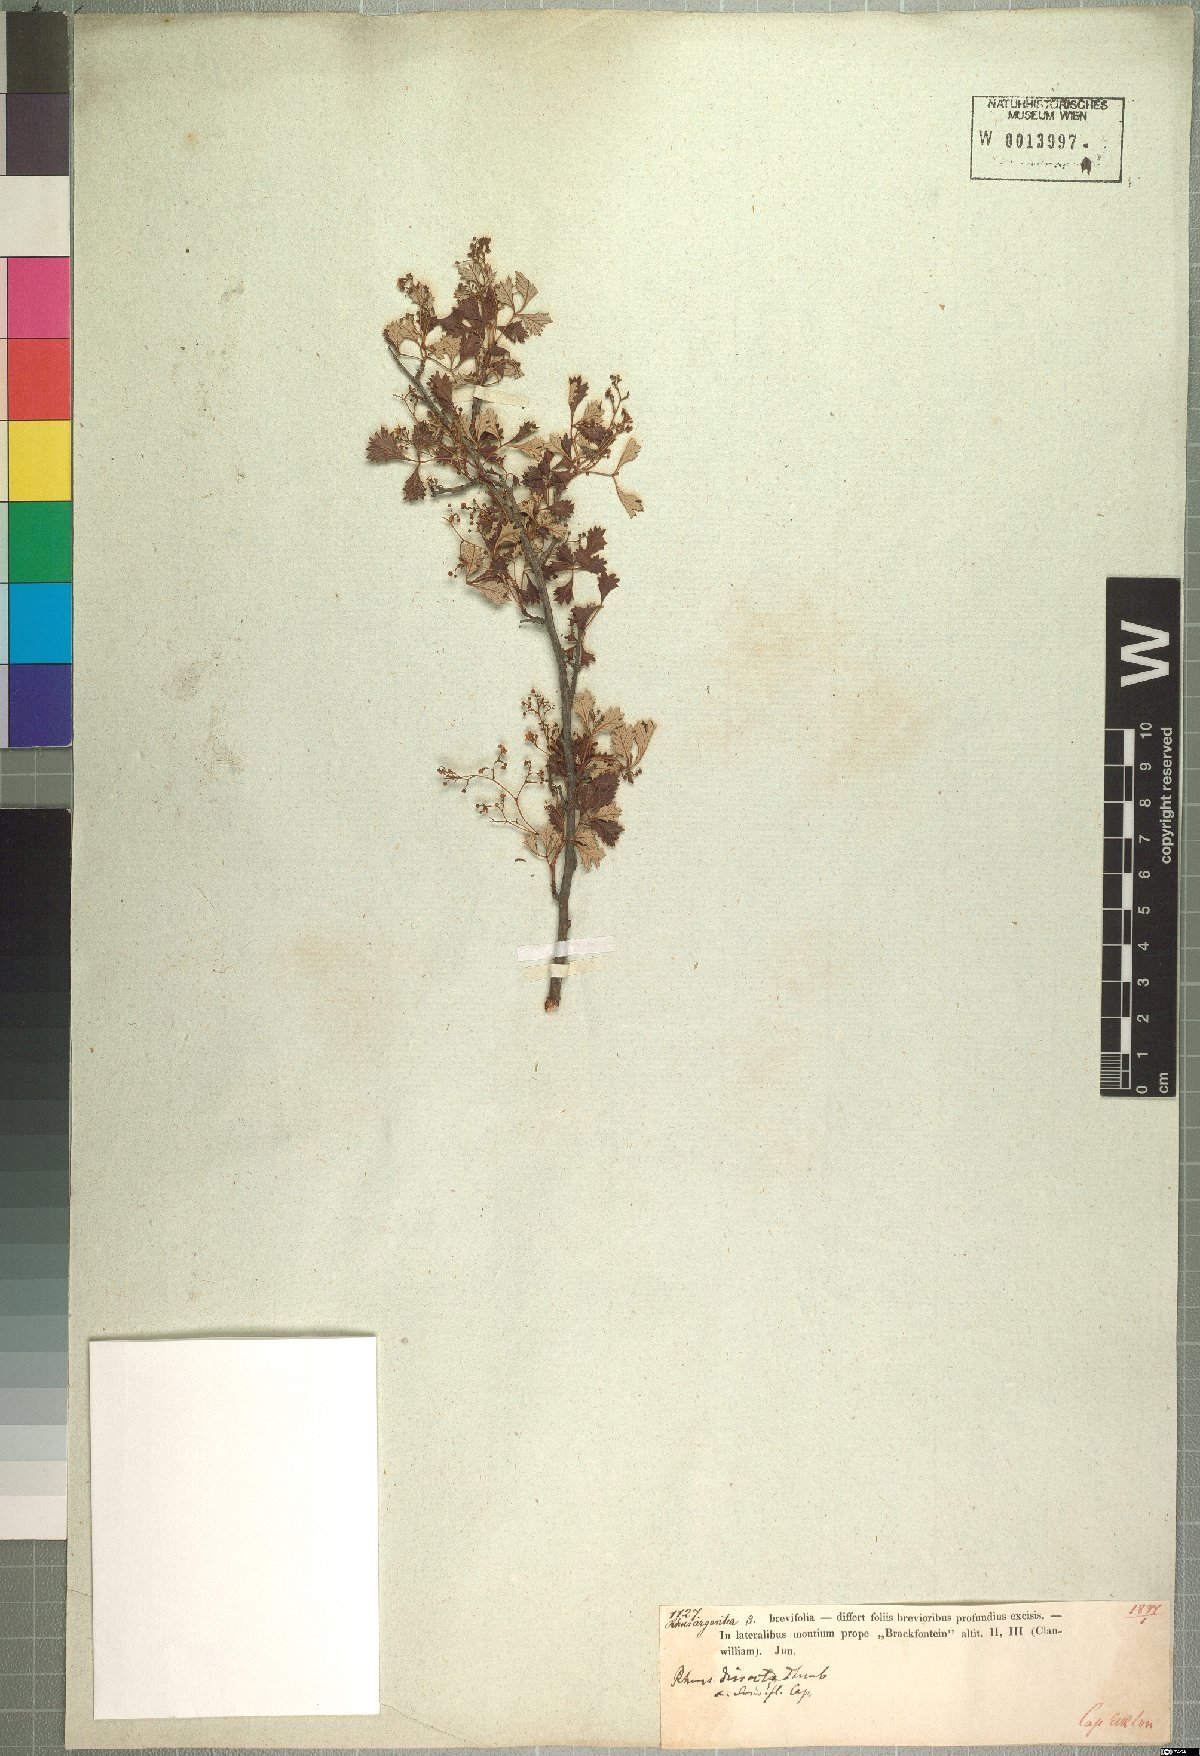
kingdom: Plantae
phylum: Tracheophyta
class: Magnoliopsida
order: Sapindales
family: Anacardiaceae
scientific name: Anacardiaceae
